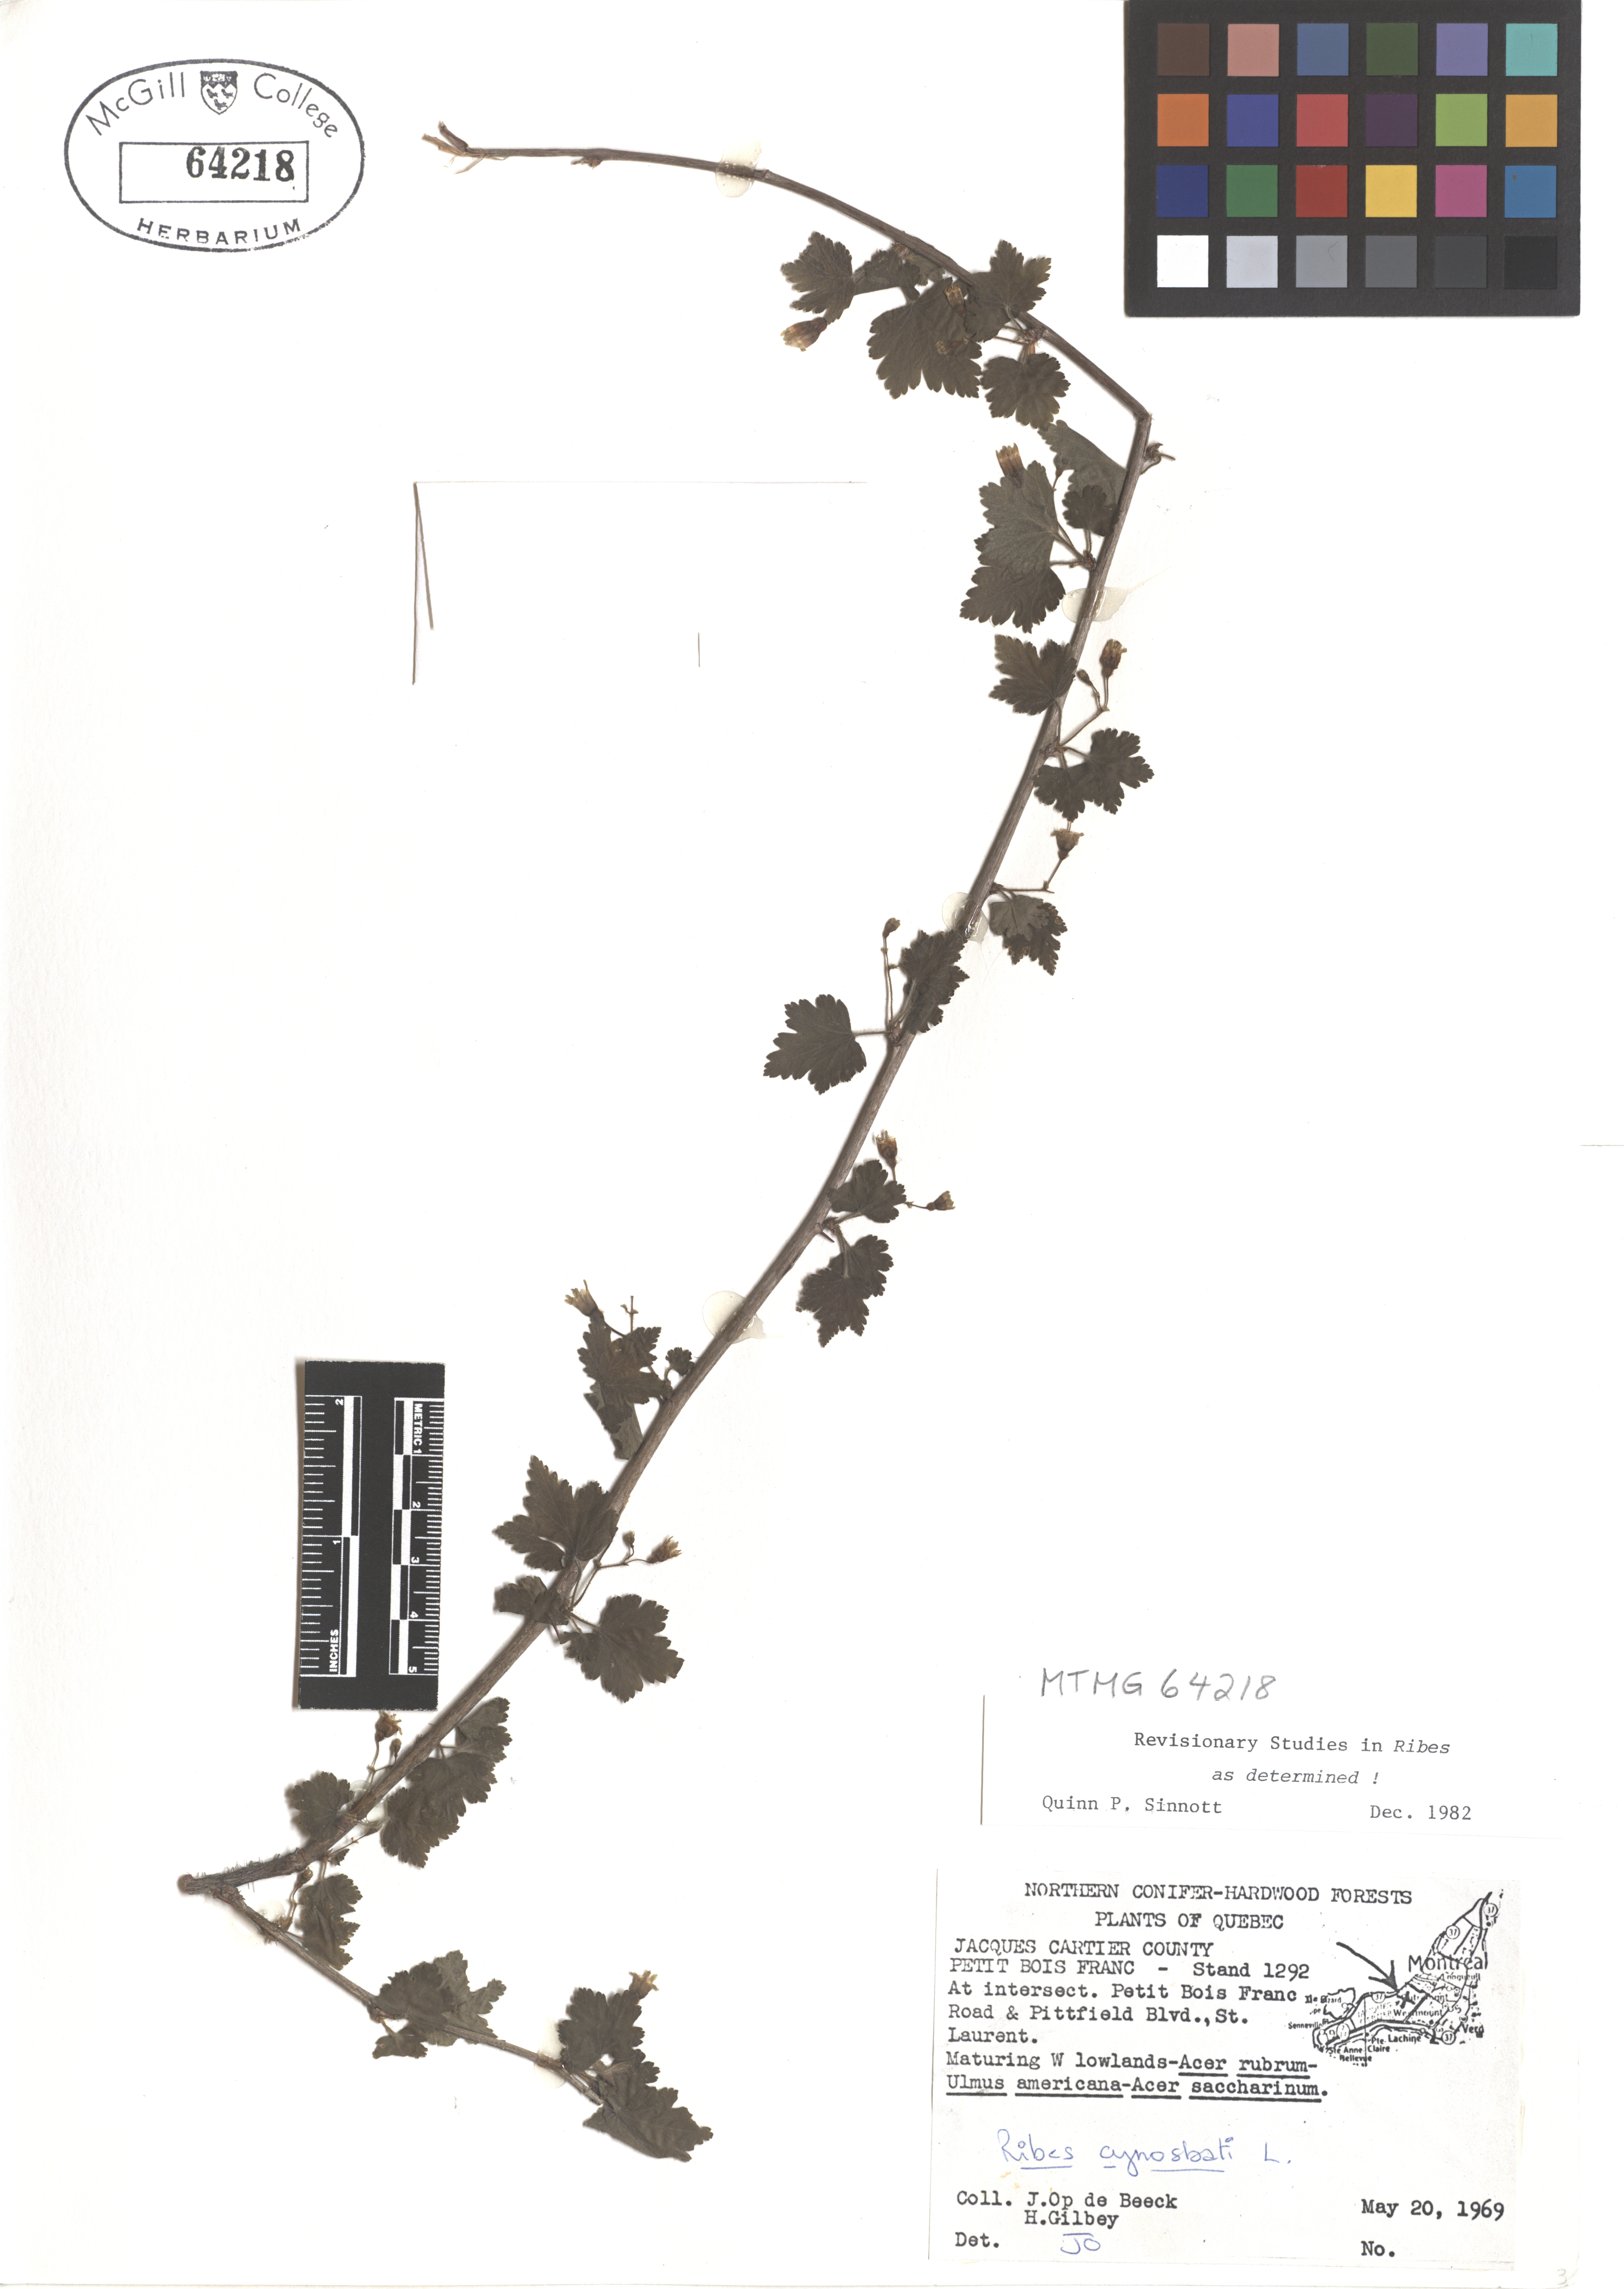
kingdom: Plantae
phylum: Tracheophyta
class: Magnoliopsida
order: Saxifragales
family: Grossulariaceae
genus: Ribes
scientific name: Ribes cynosbati
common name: American gooseberry
